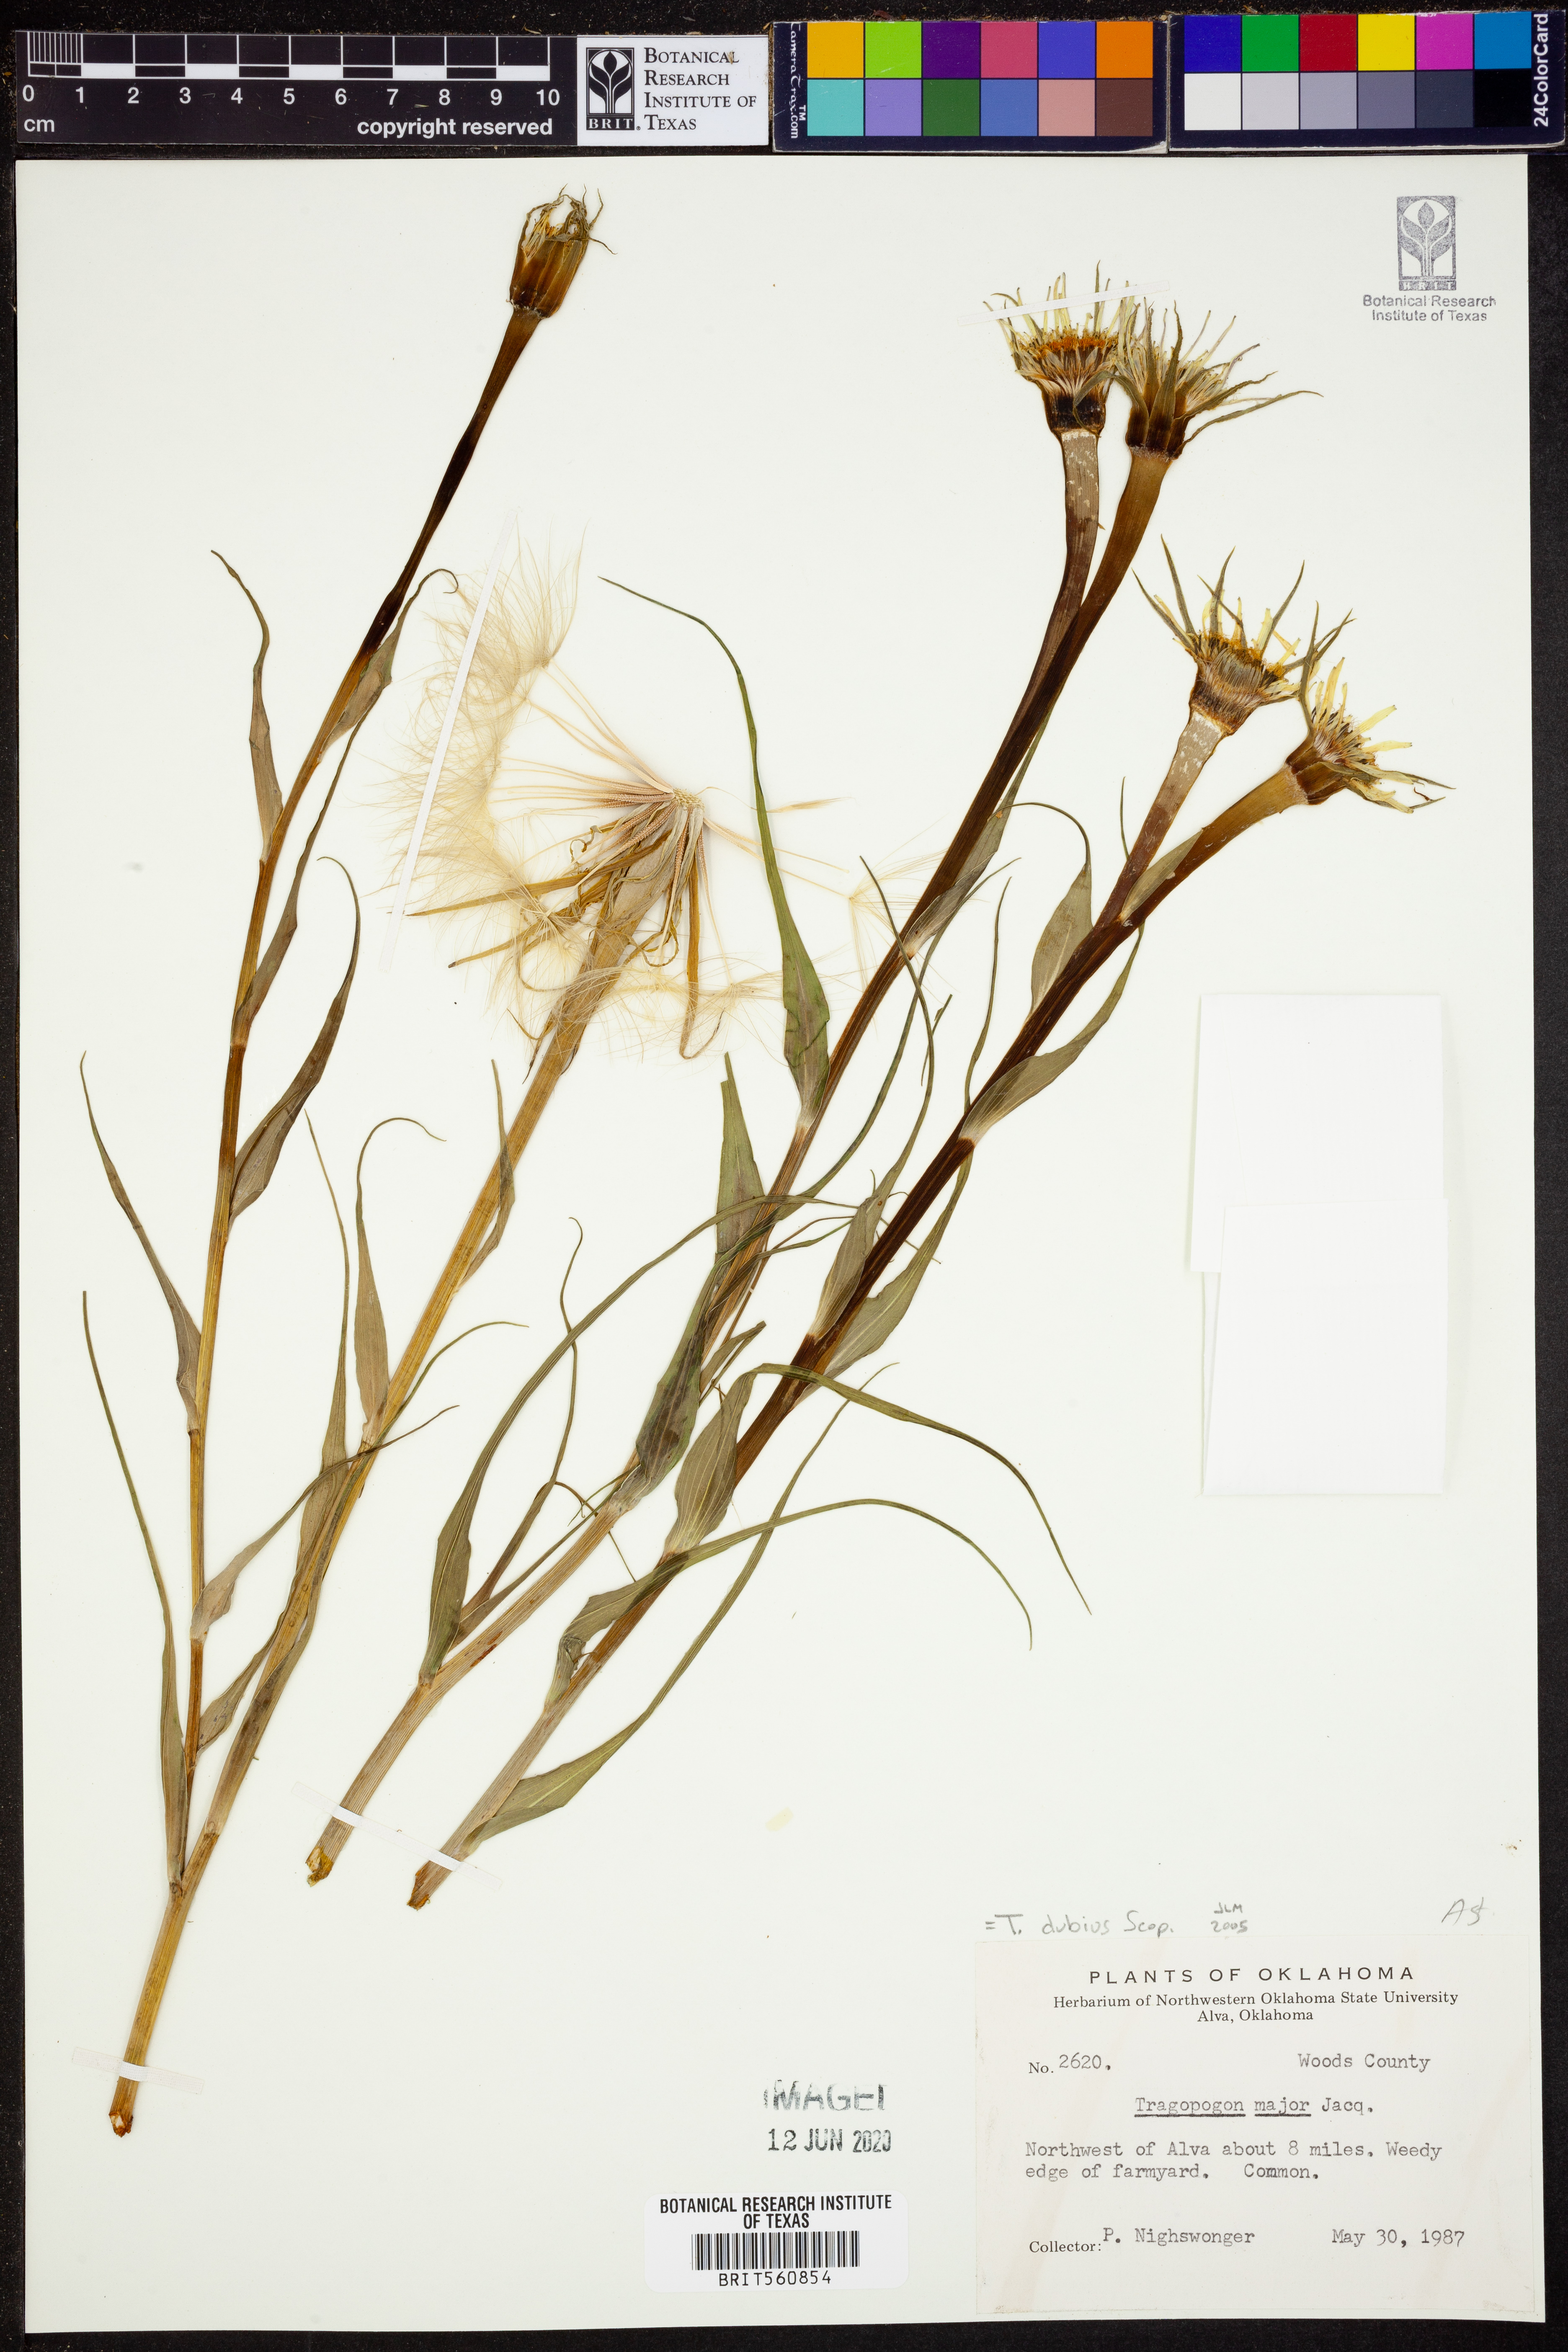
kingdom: Plantae
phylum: Tracheophyta
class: Magnoliopsida
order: Asterales
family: Asteraceae
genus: Tragopogon
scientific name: Tragopogon dubius
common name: Yellow salsify
